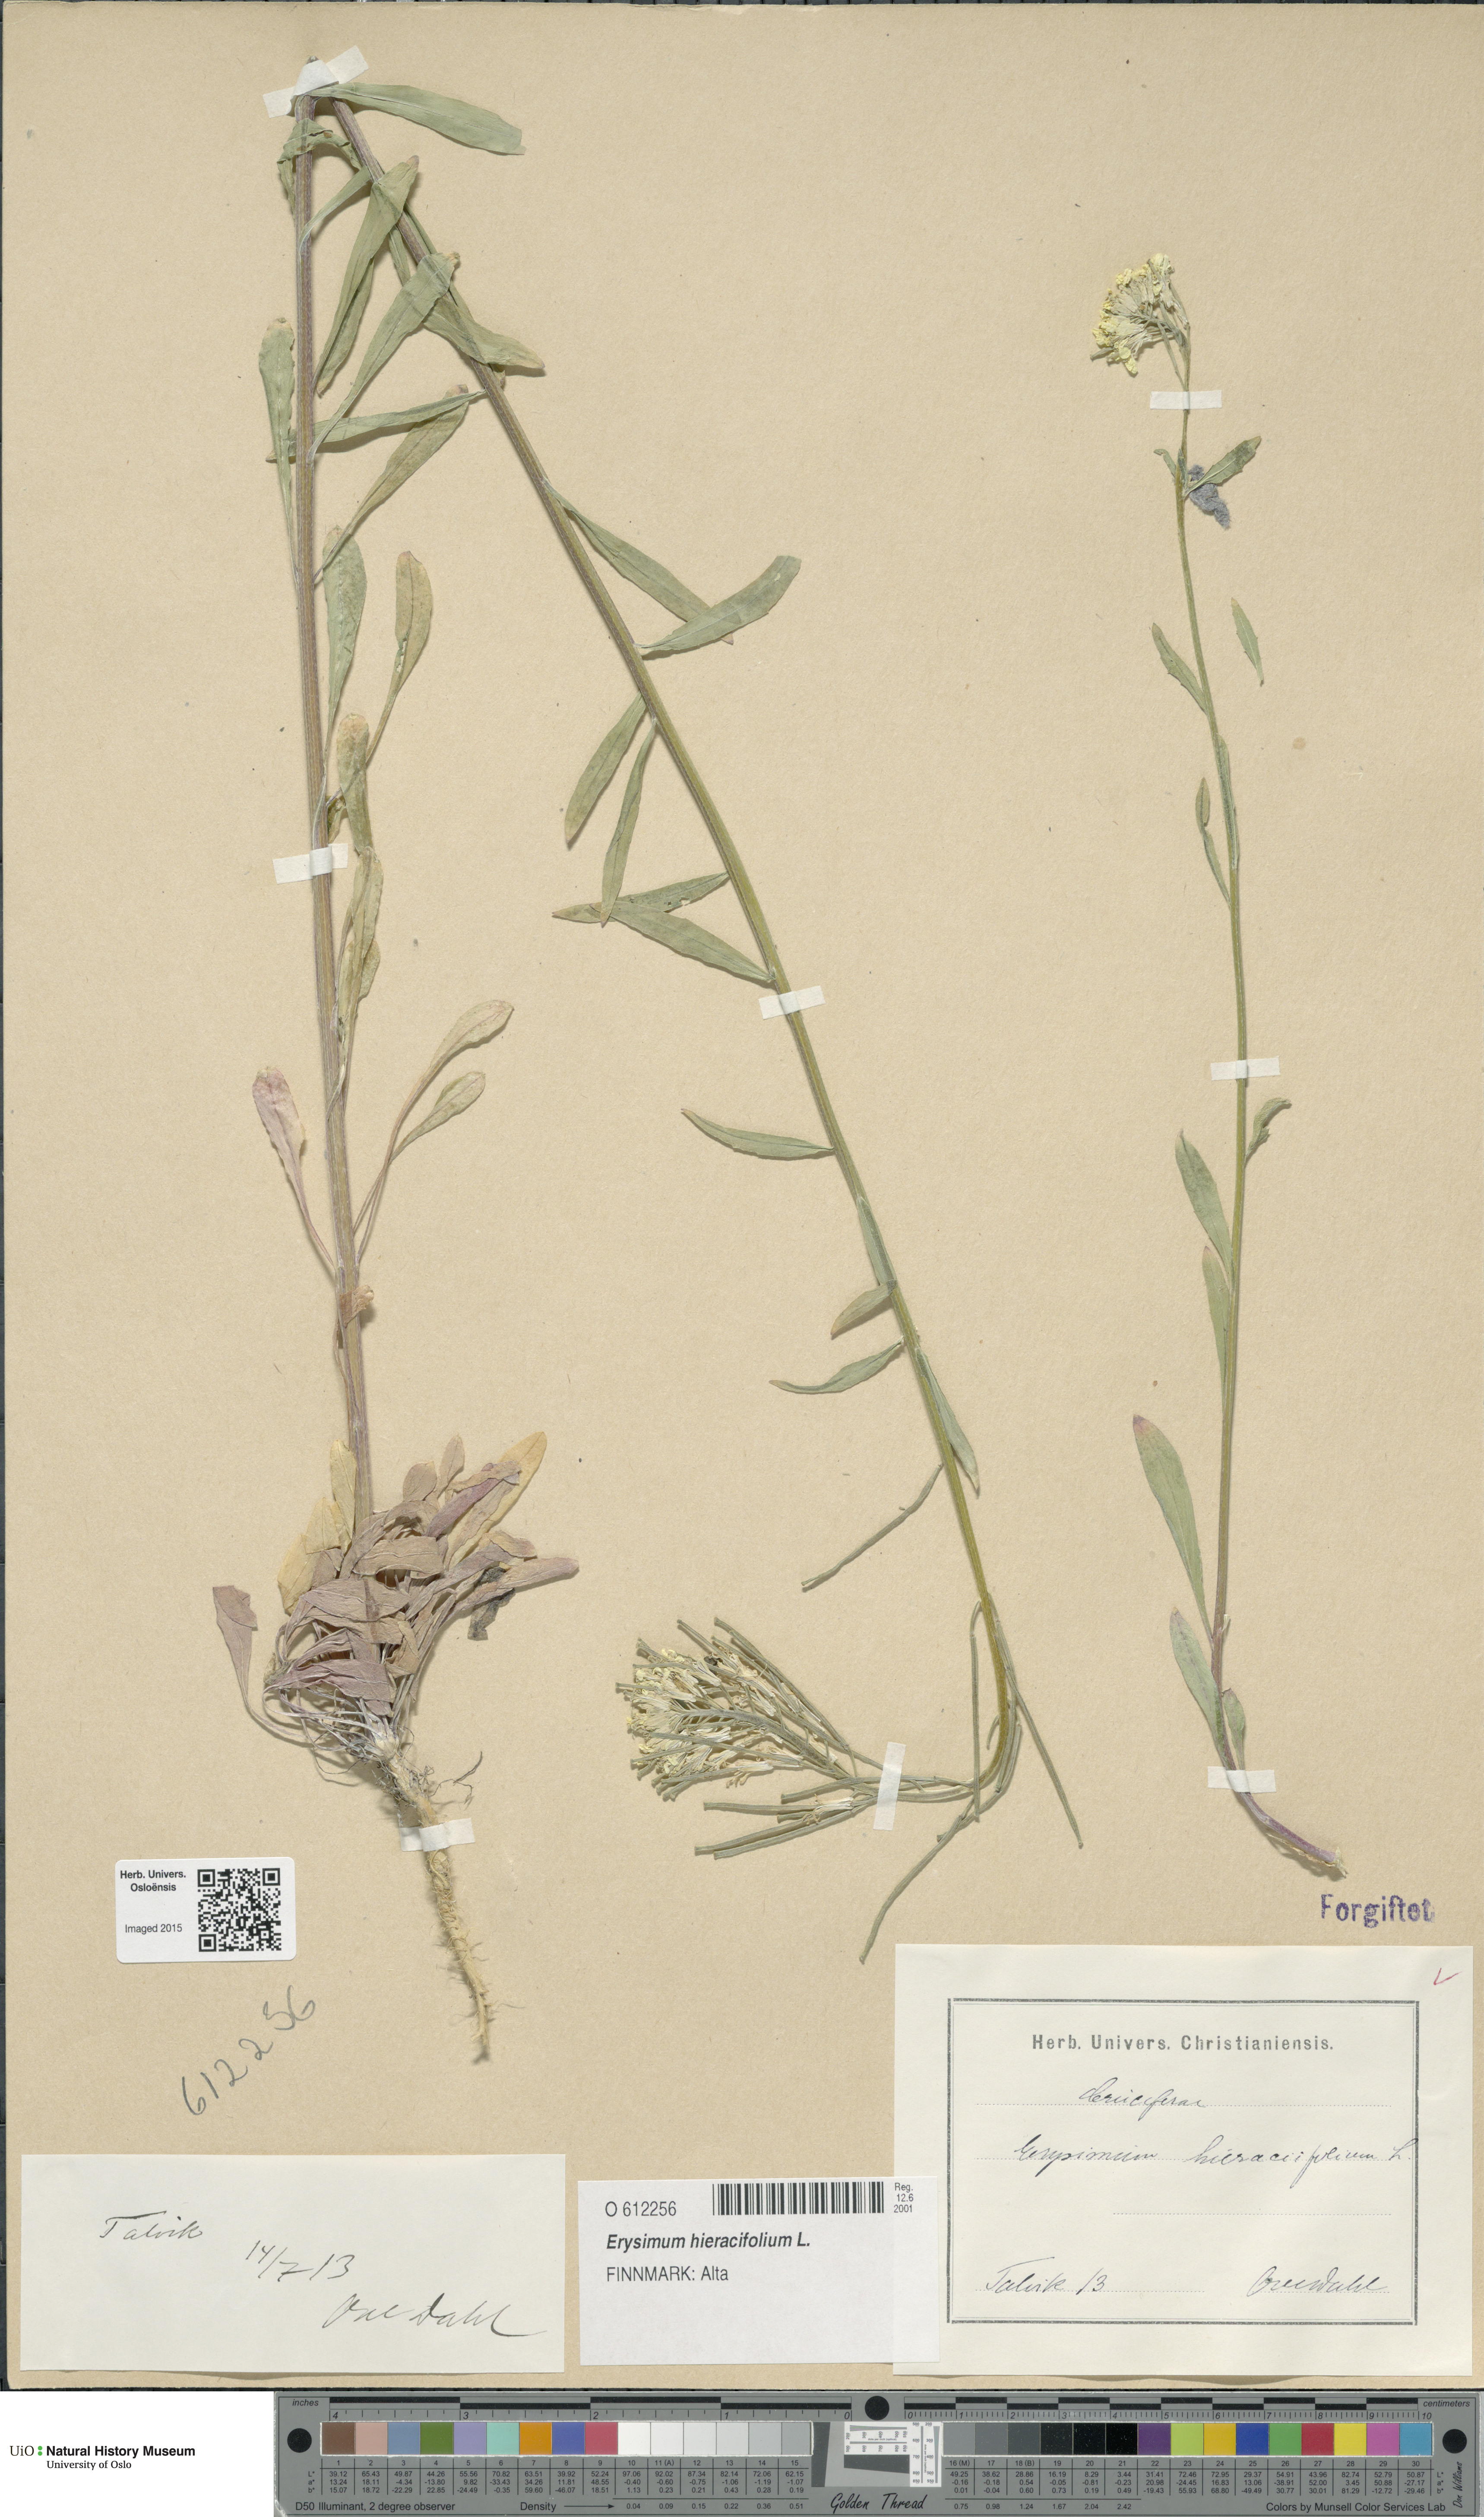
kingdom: Plantae
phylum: Tracheophyta
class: Magnoliopsida
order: Brassicales
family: Brassicaceae
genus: Erysimum
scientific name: Erysimum hieraciifolium
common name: European wallflower
